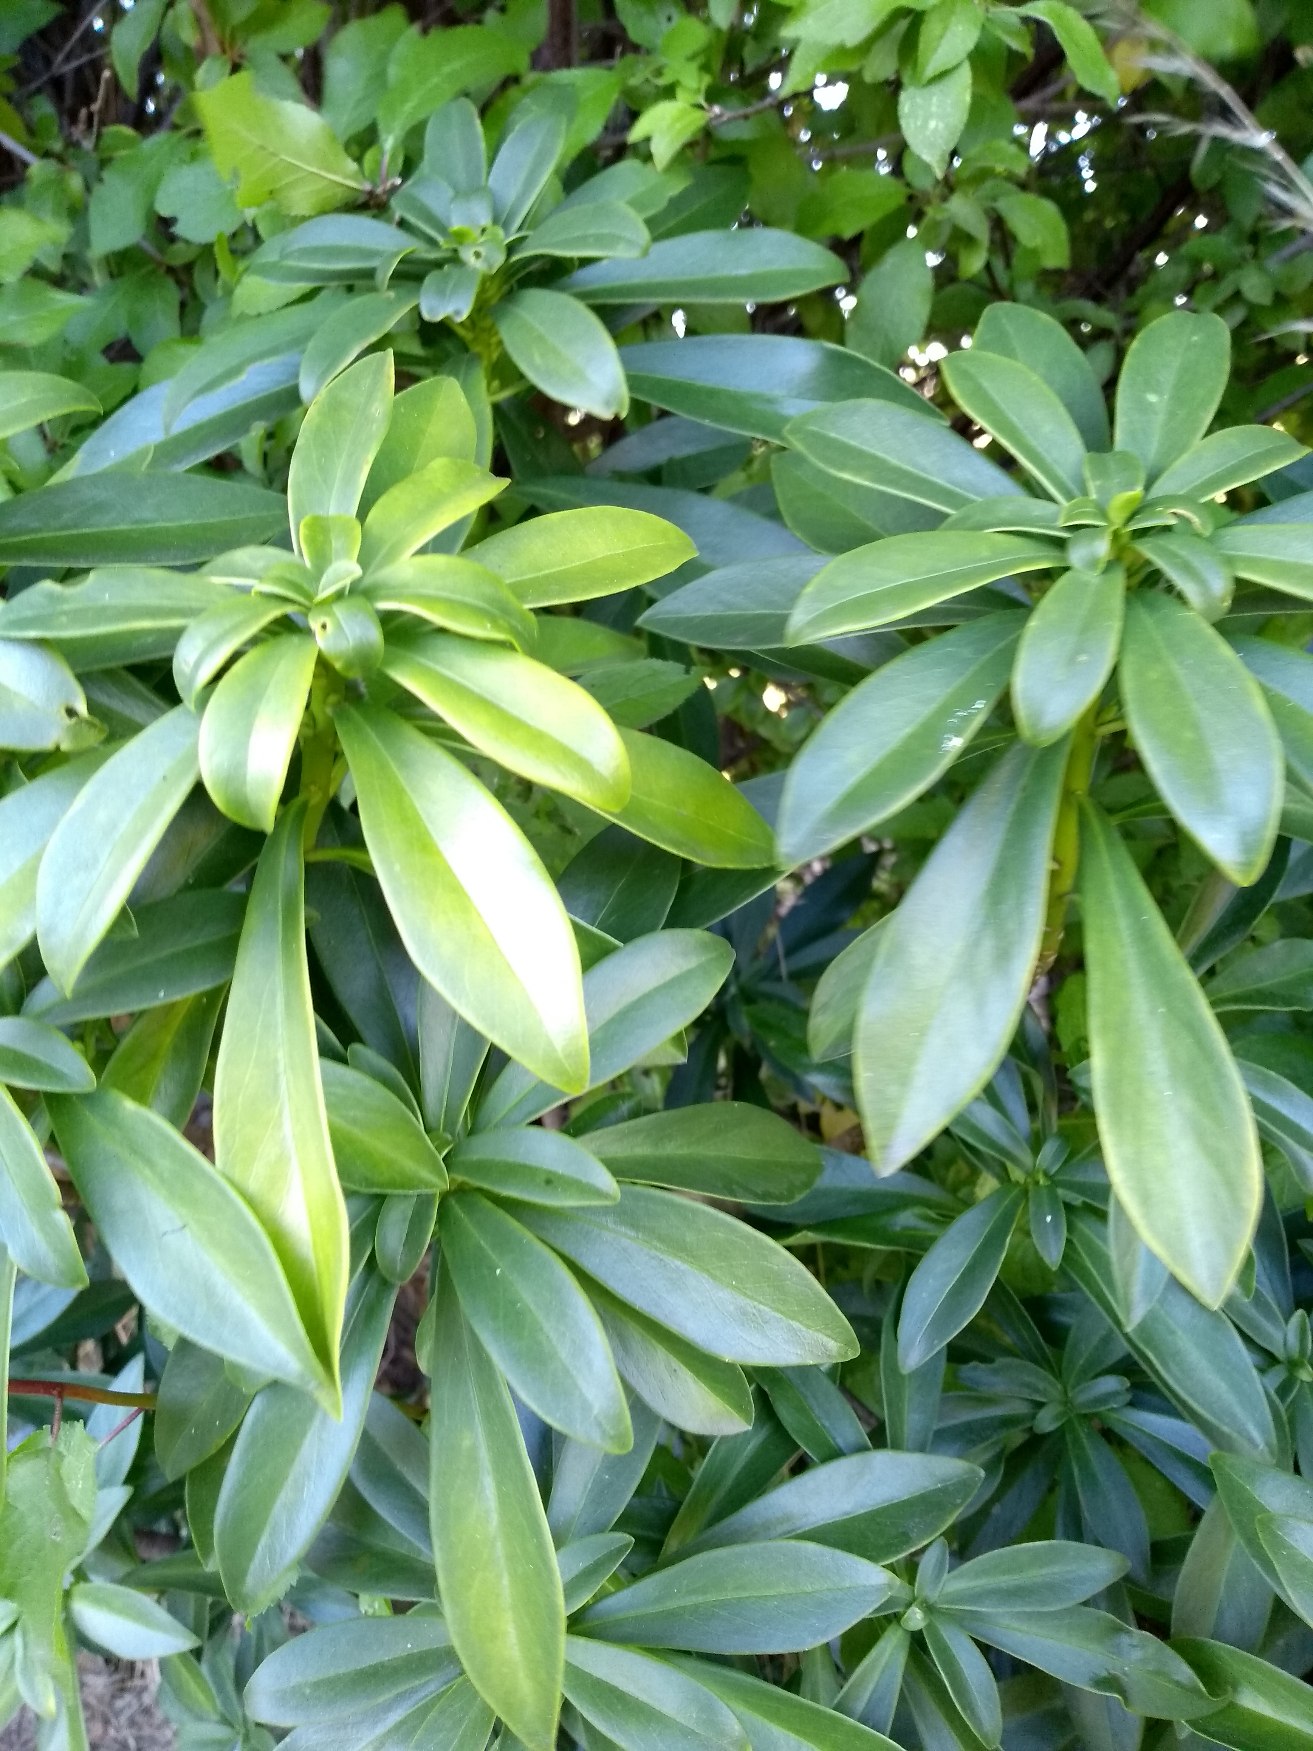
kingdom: Plantae
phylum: Tracheophyta
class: Magnoliopsida
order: Malvales
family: Thymelaeaceae
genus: Daphne
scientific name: Daphne laureola
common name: Laurbær-dafne
